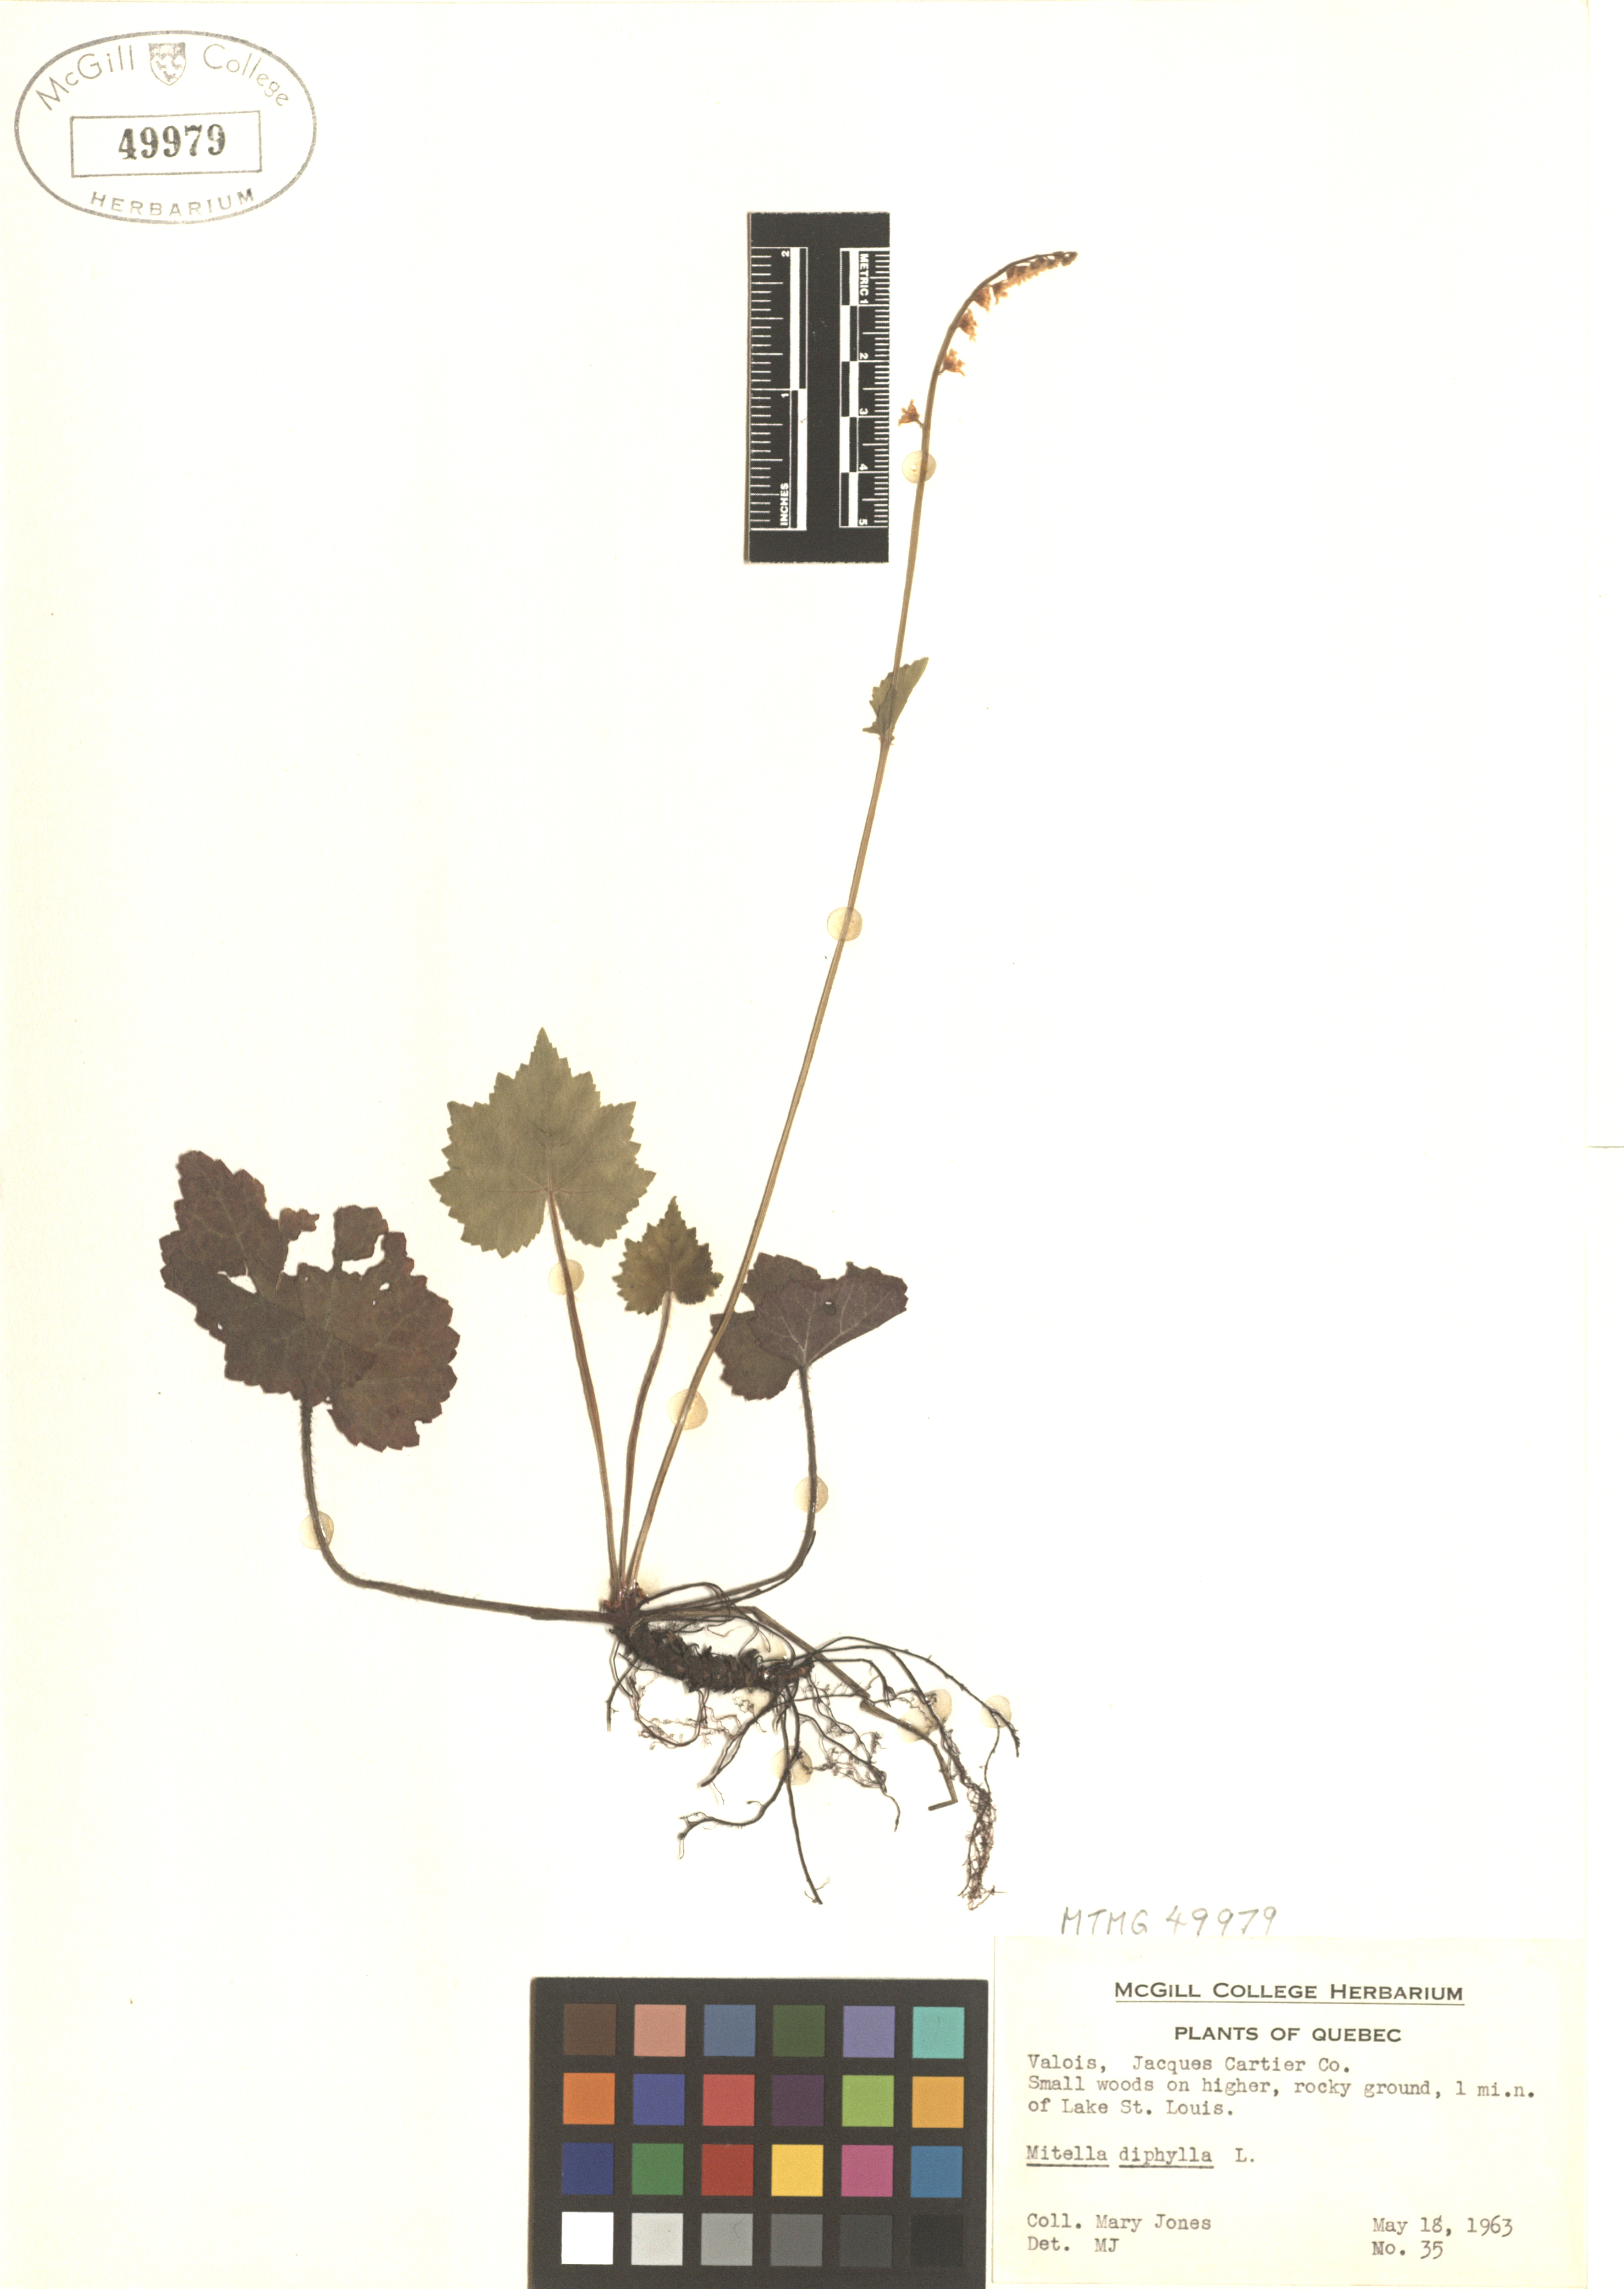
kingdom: Plantae
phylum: Tracheophyta
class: Magnoliopsida
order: Saxifragales
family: Saxifragaceae
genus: Mitella
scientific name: Mitella diphylla
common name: Coolwort
